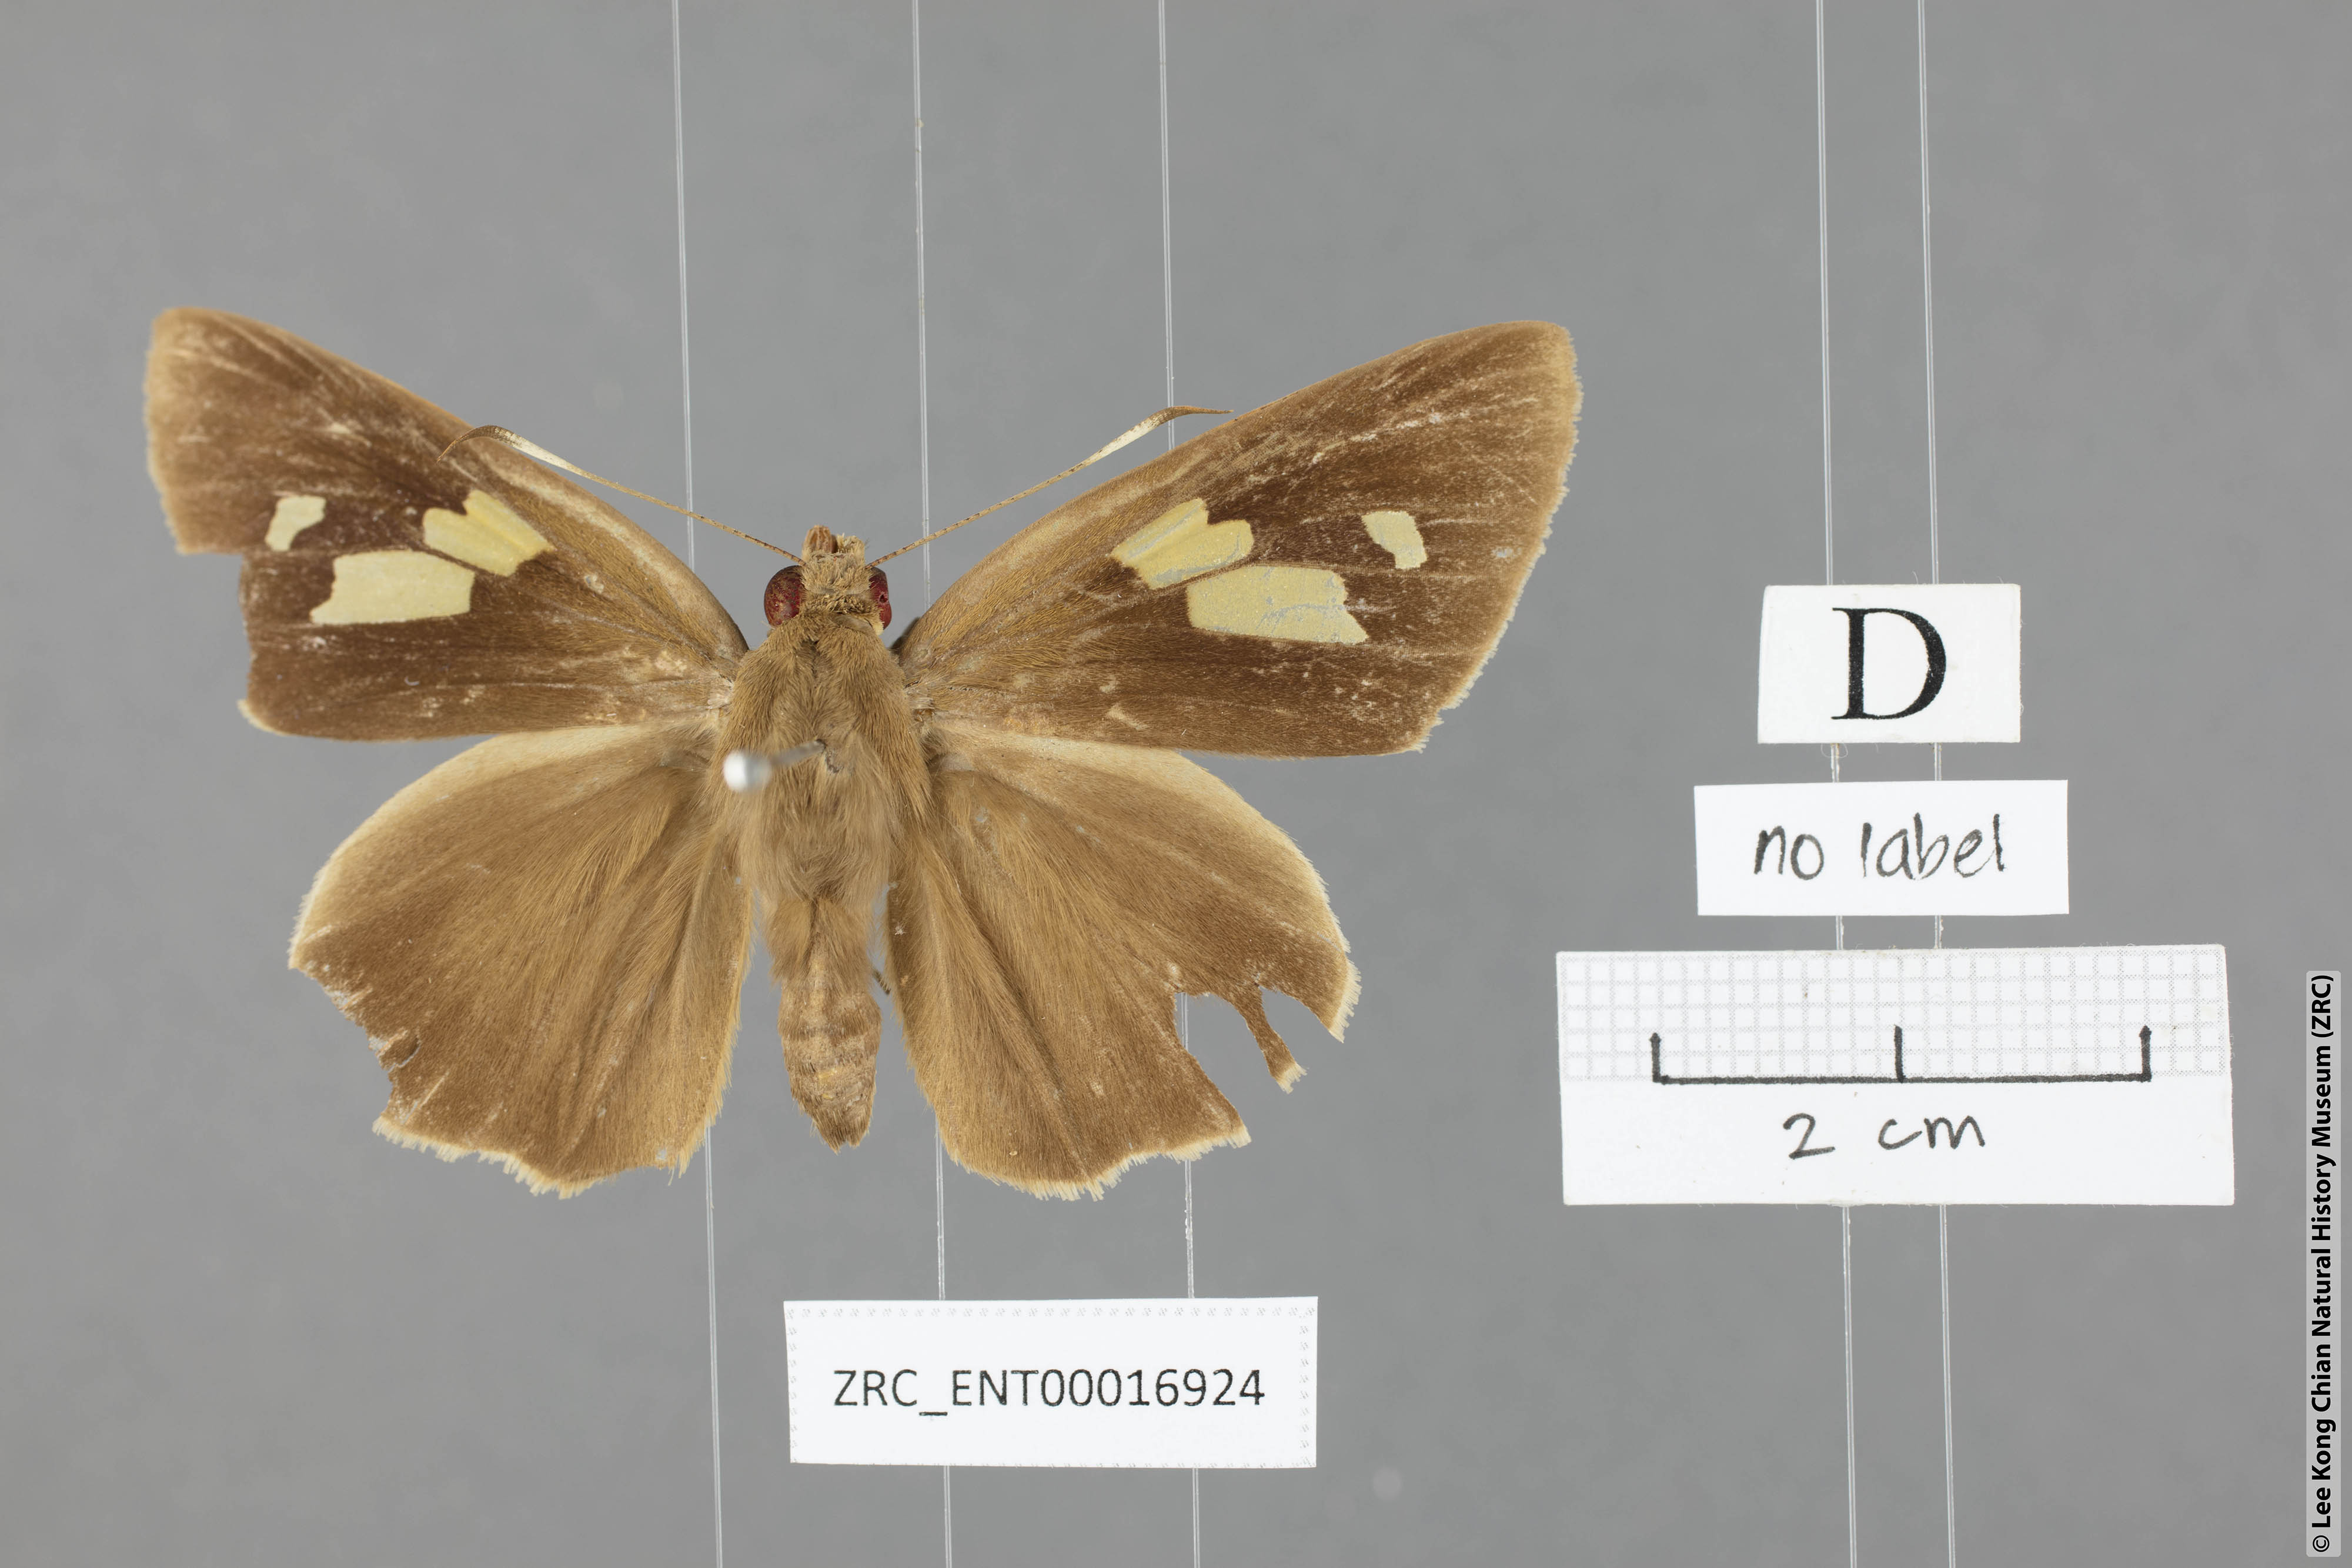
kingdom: Animalia
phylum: Arthropoda
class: Insecta
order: Lepidoptera
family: Hesperiidae
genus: Erionota
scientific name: Erionota torus
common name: Rounded palm-redeye
